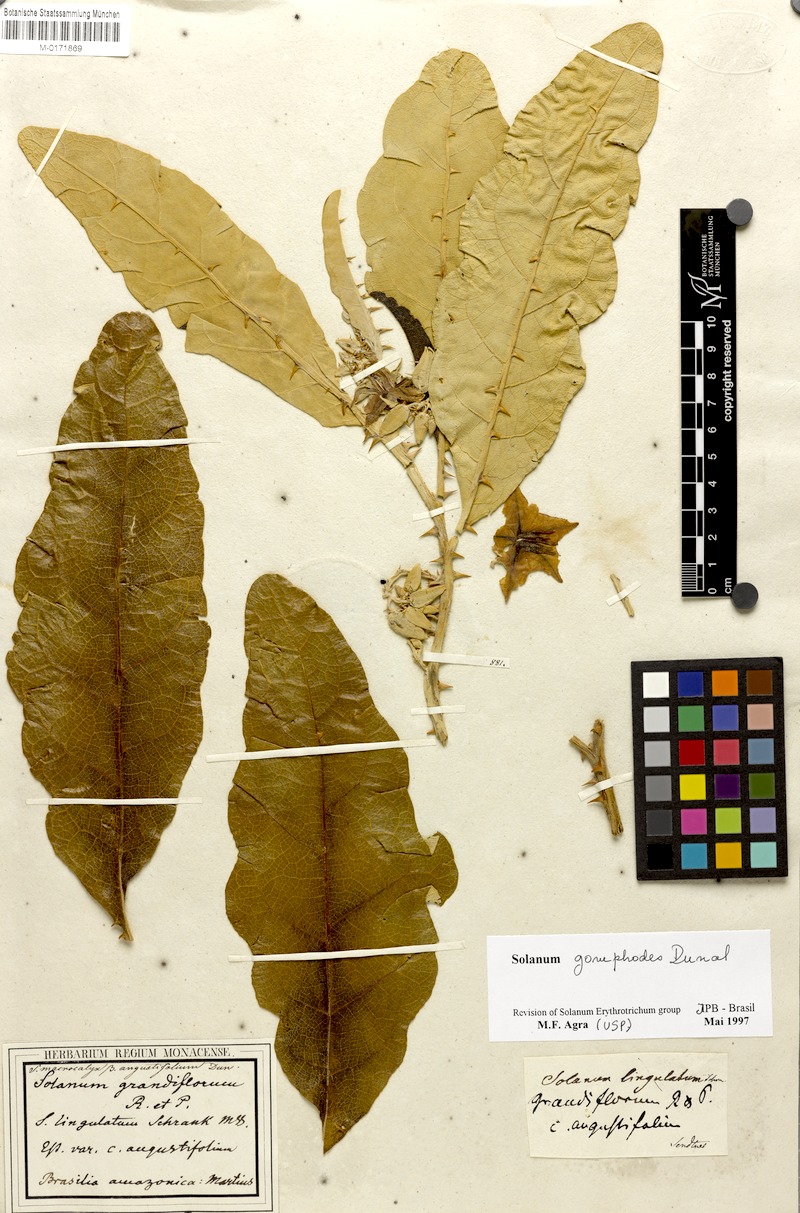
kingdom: Plantae
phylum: Tracheophyta
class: Magnoliopsida
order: Solanales
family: Solanaceae
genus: Solanum
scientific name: Solanum gomphodes
